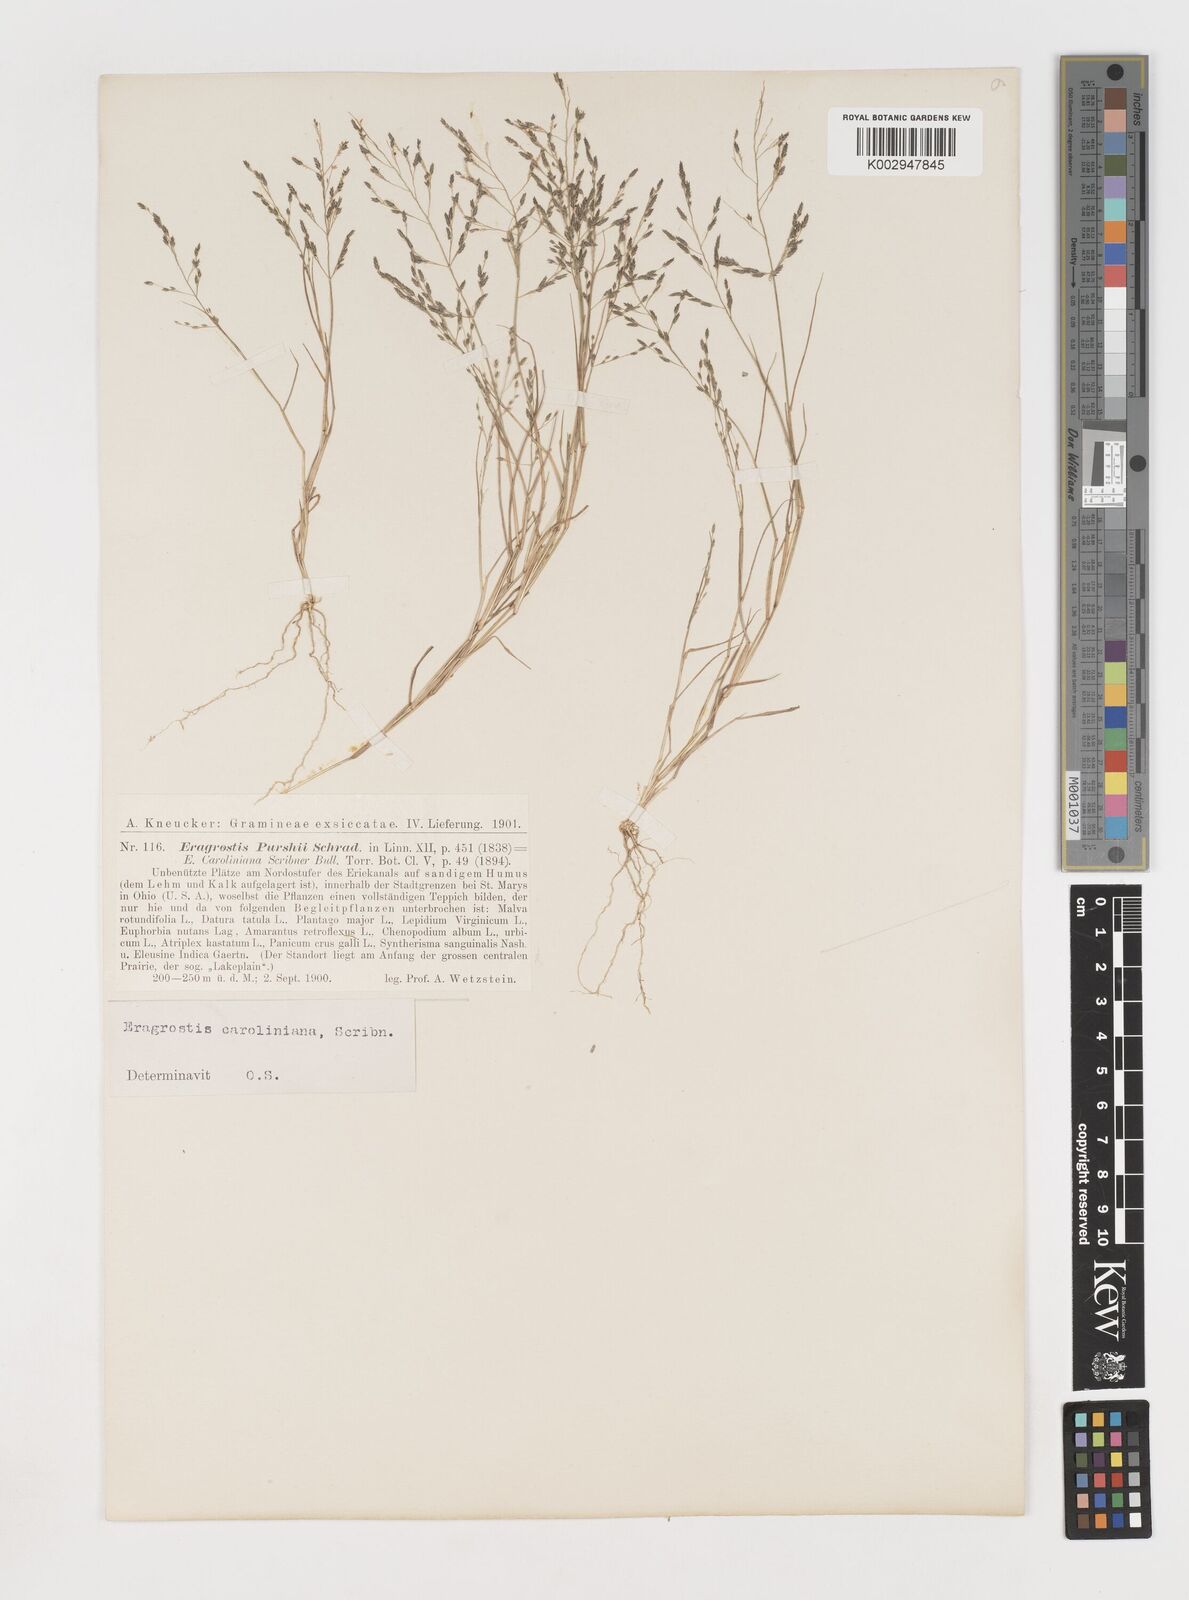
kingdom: Plantae
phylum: Tracheophyta
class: Liliopsida
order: Poales
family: Poaceae
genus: Eragrostis
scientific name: Eragrostis pectinacea
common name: Tufted lovegrass
